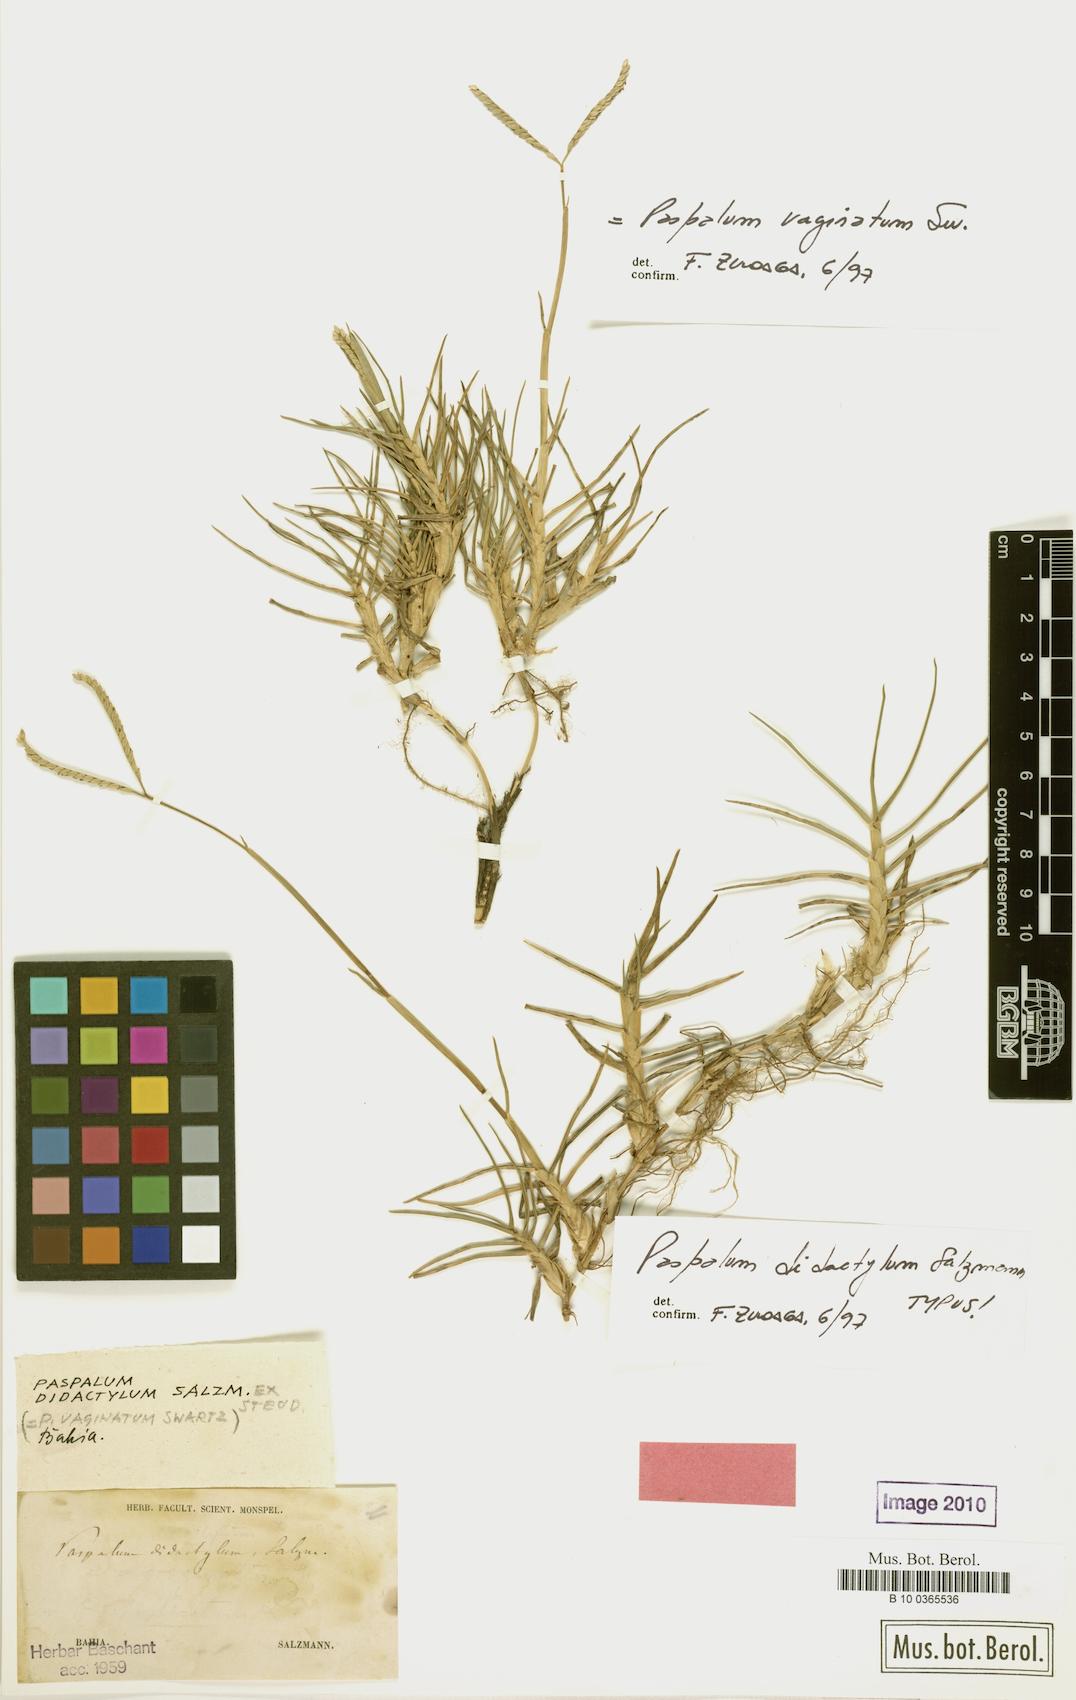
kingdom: Plantae
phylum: Tracheophyta
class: Liliopsida
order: Poales
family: Poaceae
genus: Paspalum
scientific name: Paspalum vaginatum
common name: Seashore paspalum
